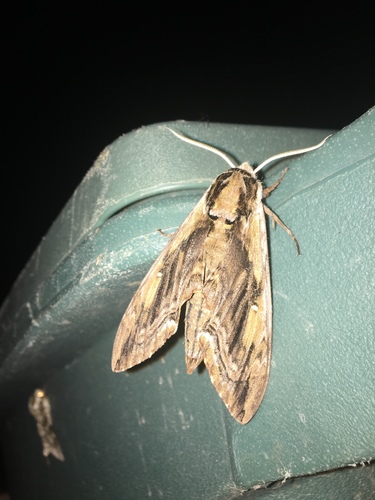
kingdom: Animalia
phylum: Arthropoda
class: Insecta
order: Lepidoptera
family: Sphingidae
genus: Ceratomia
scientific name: Ceratomia amyntor
